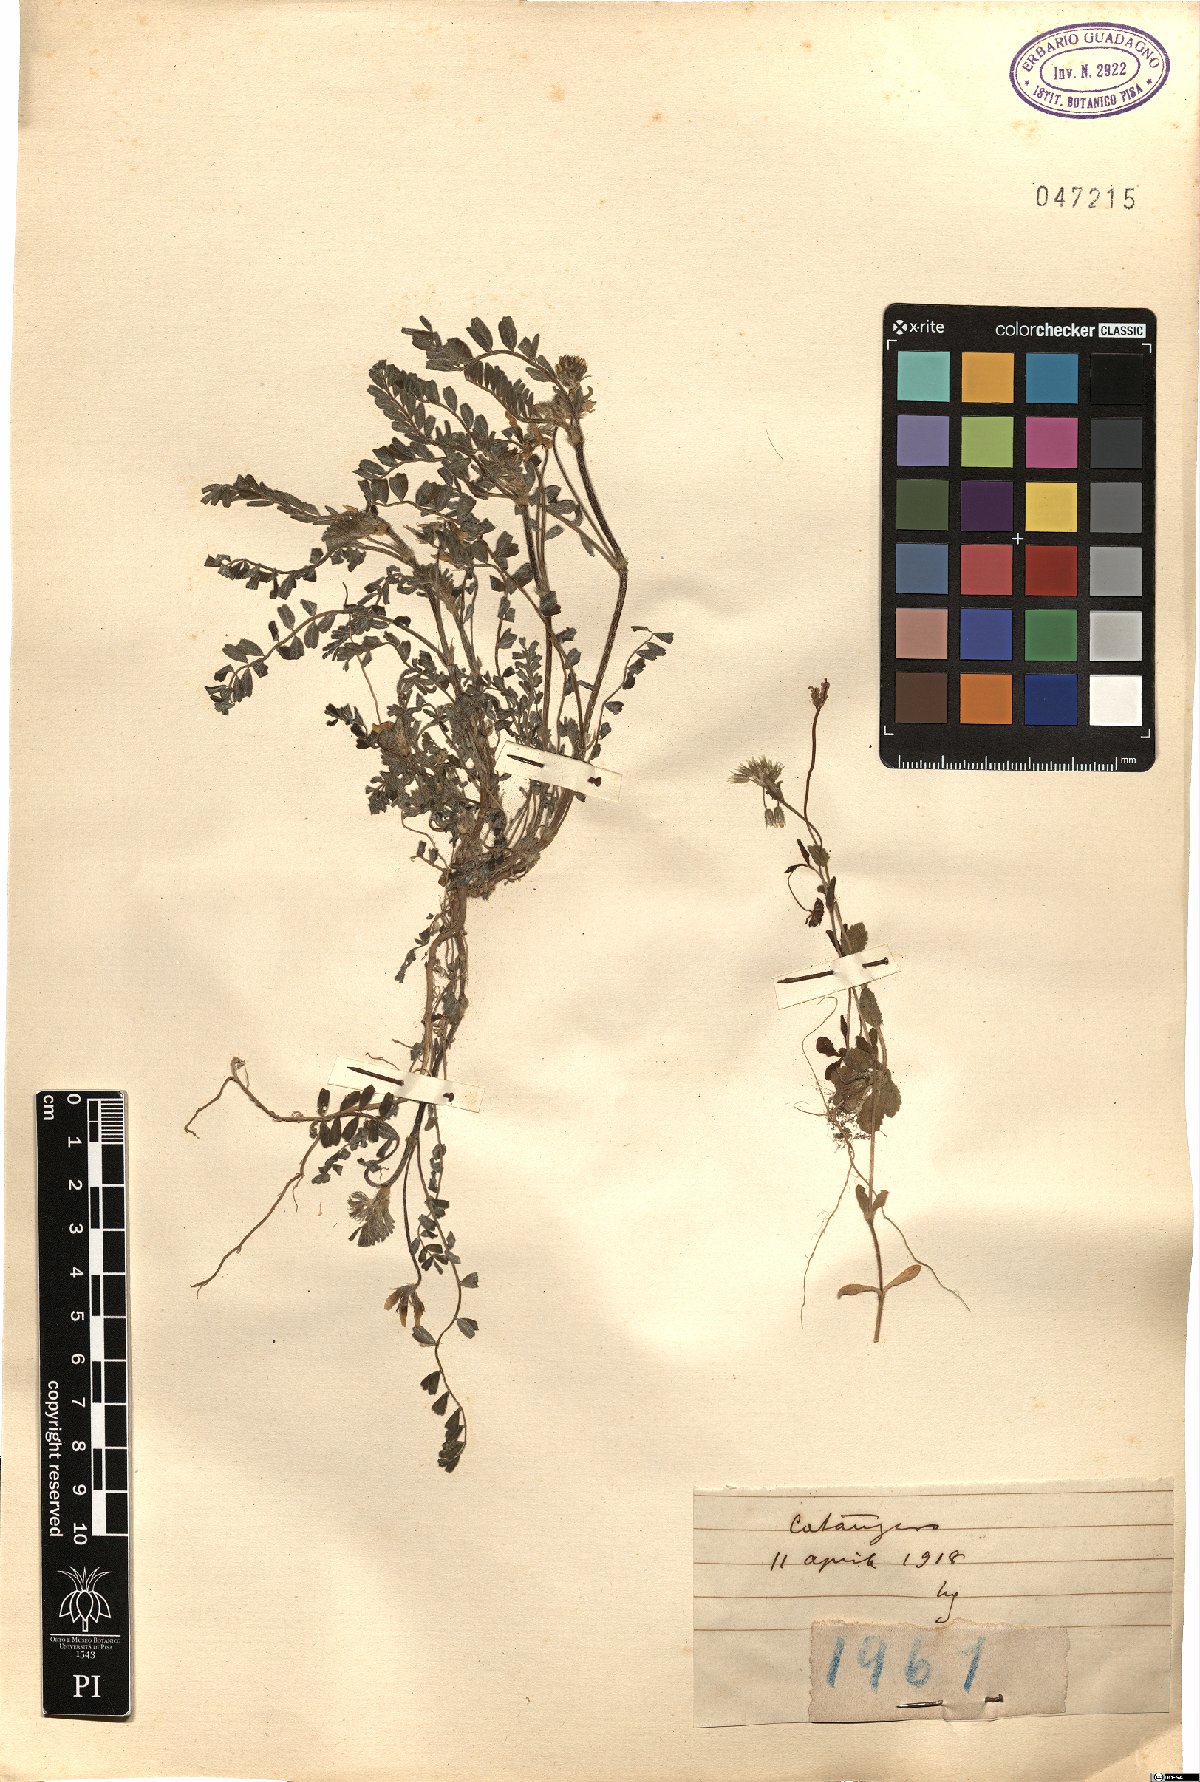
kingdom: Plantae
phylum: Tracheophyta
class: Magnoliopsida
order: Fabales
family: Fabaceae
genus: Astragalus
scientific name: Astragalus
